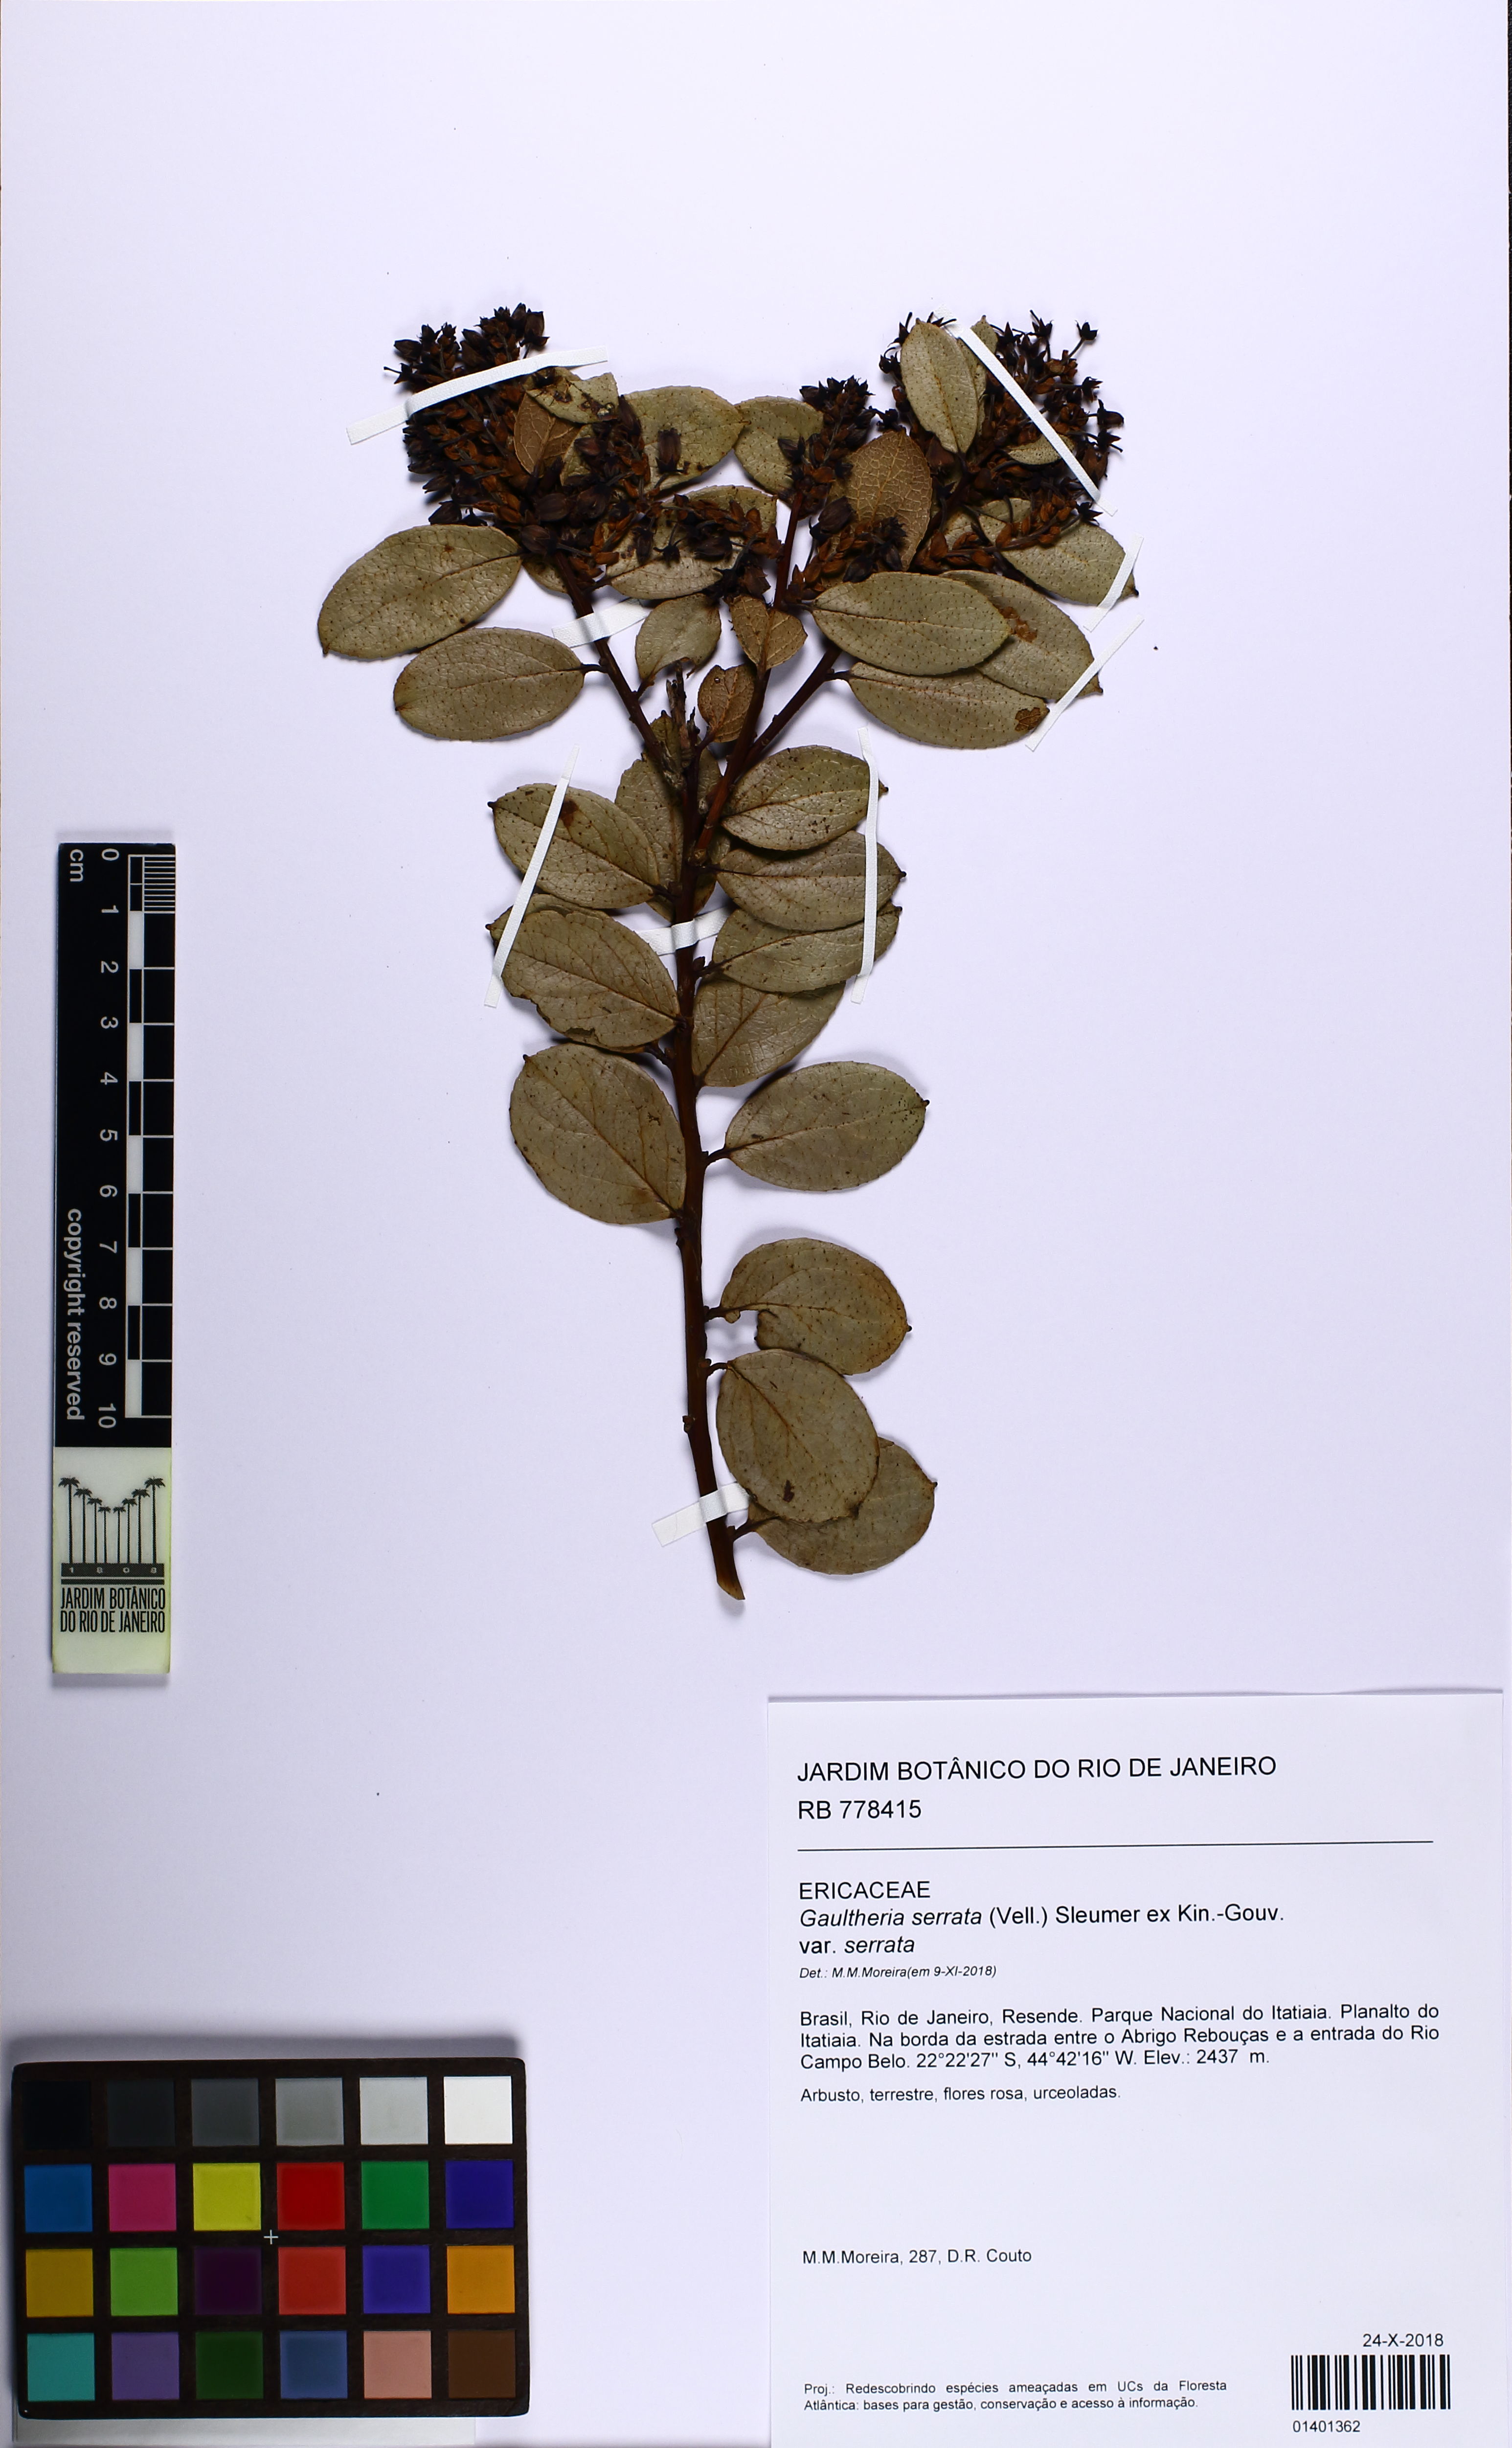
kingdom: Plantae
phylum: Tracheophyta
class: Magnoliopsida
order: Ericales
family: Ericaceae
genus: Gaultheria
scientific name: Gaultheria serrata
